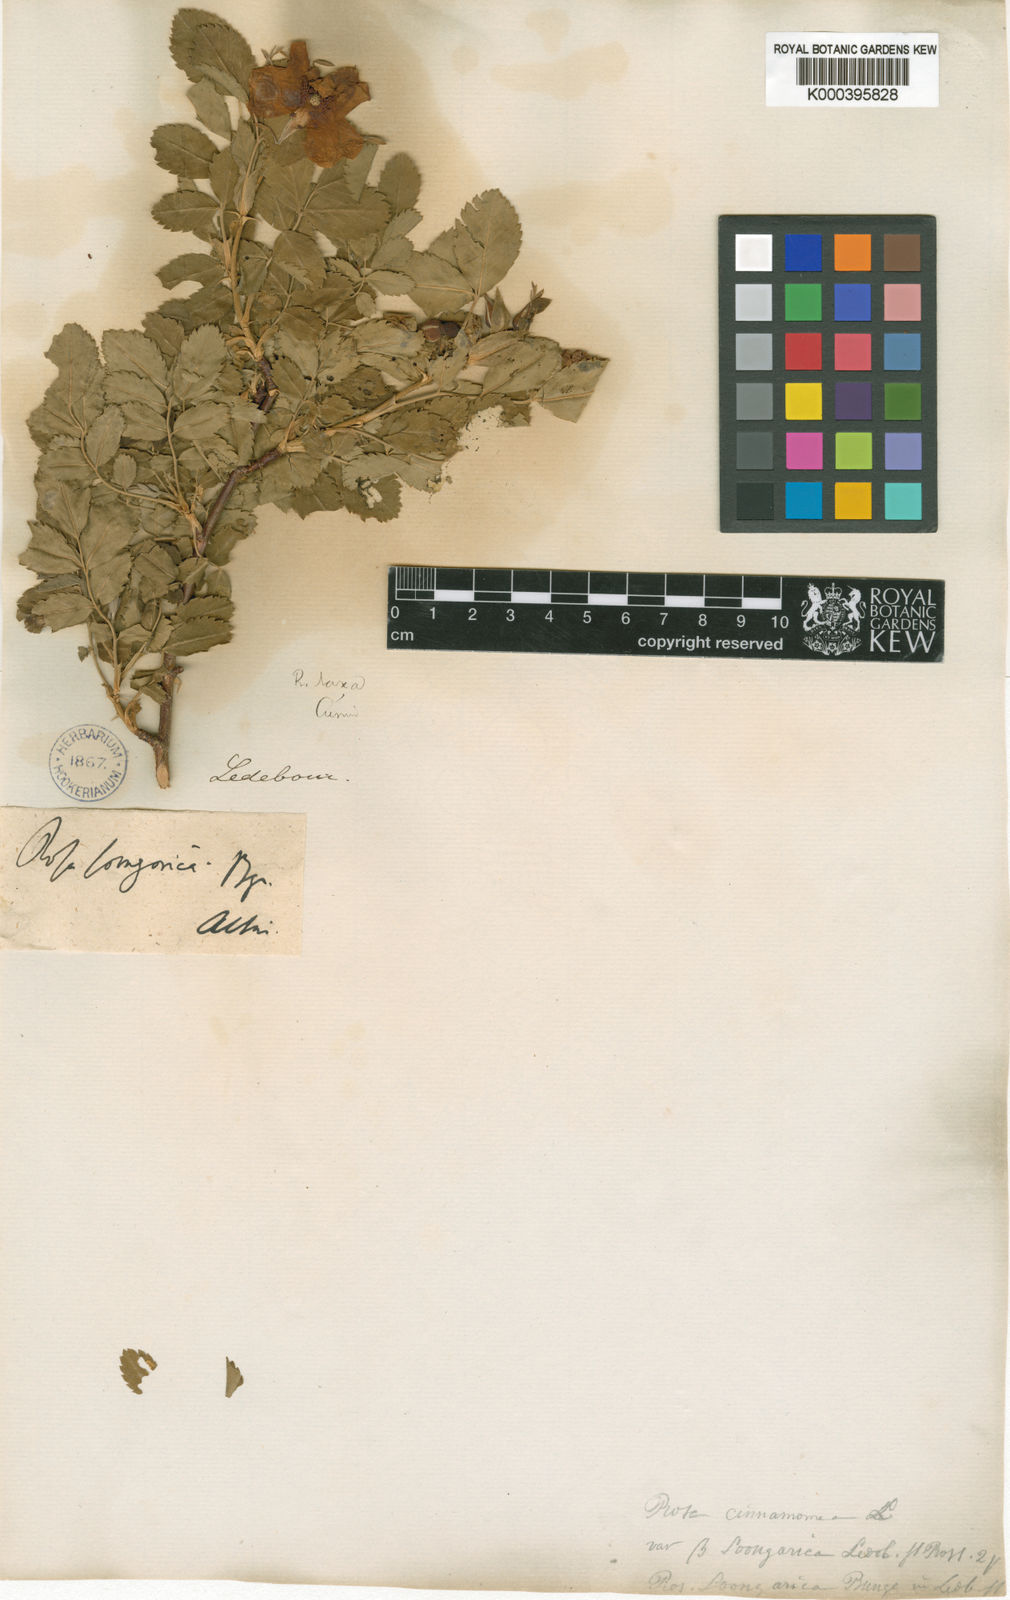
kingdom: Plantae
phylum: Tracheophyta
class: Magnoliopsida
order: Rosales
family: Rosaceae
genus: Rosa
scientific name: Rosa laxa
